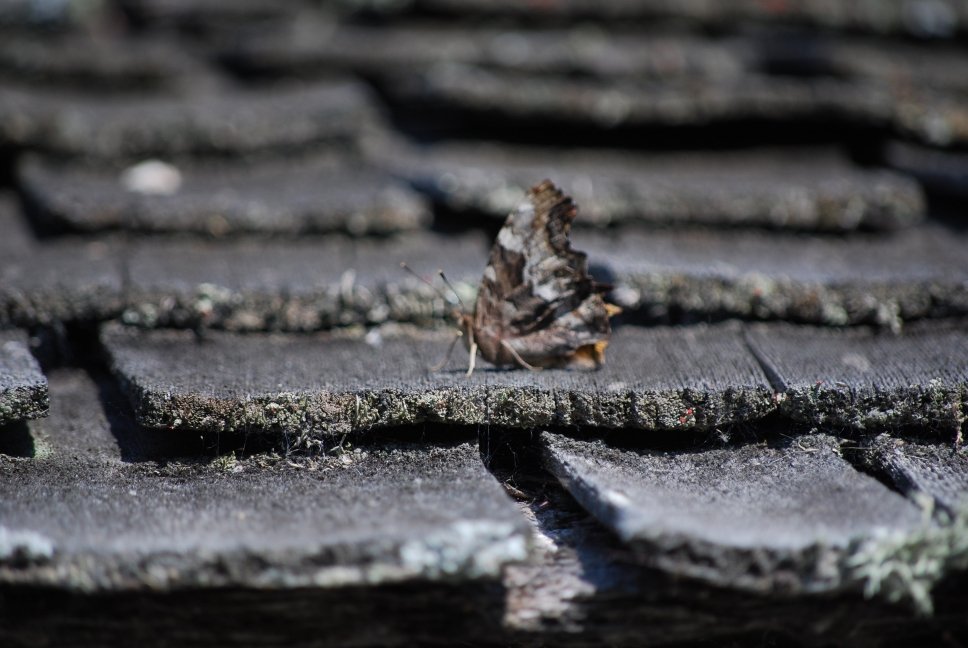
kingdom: Animalia
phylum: Arthropoda
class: Insecta
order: Lepidoptera
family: Nymphalidae
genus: Polygonia
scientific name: Polygonia vaualbum
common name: Compton Tortoiseshell
